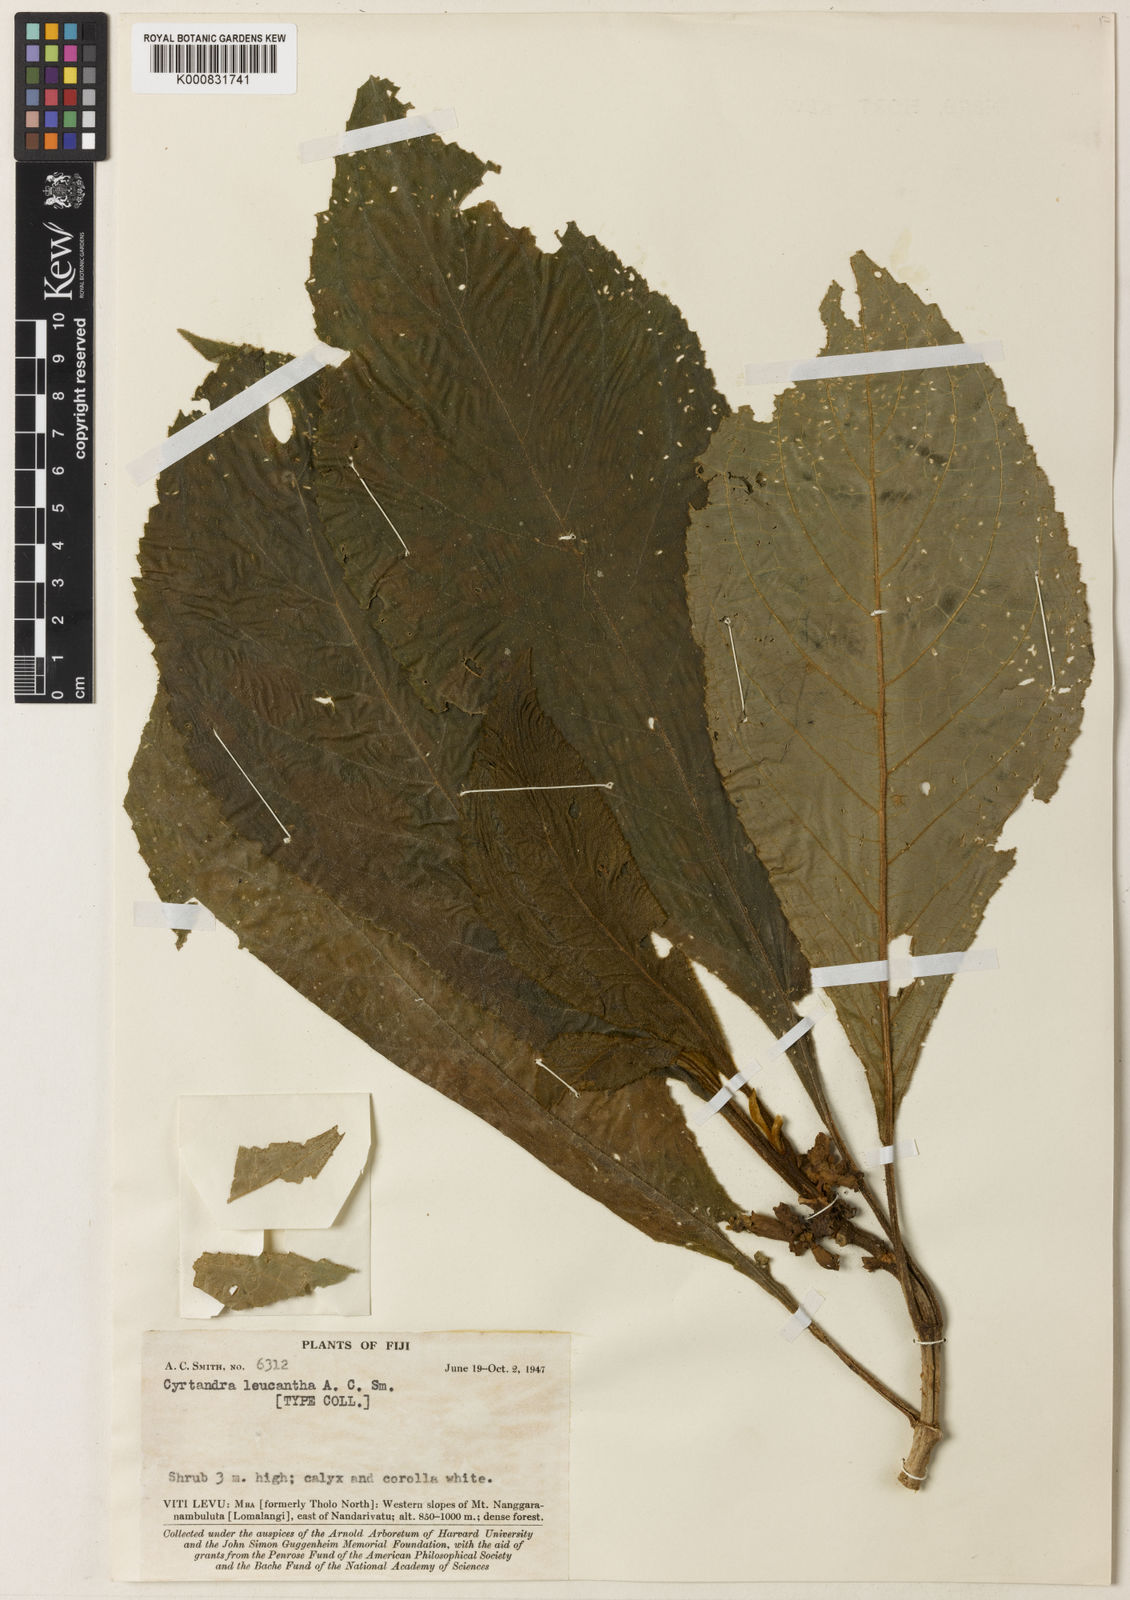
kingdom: Plantae
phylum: Tracheophyta
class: Magnoliopsida
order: Lamiales
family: Gesneriaceae
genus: Cyrtandra
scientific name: Cyrtandra leucantha
